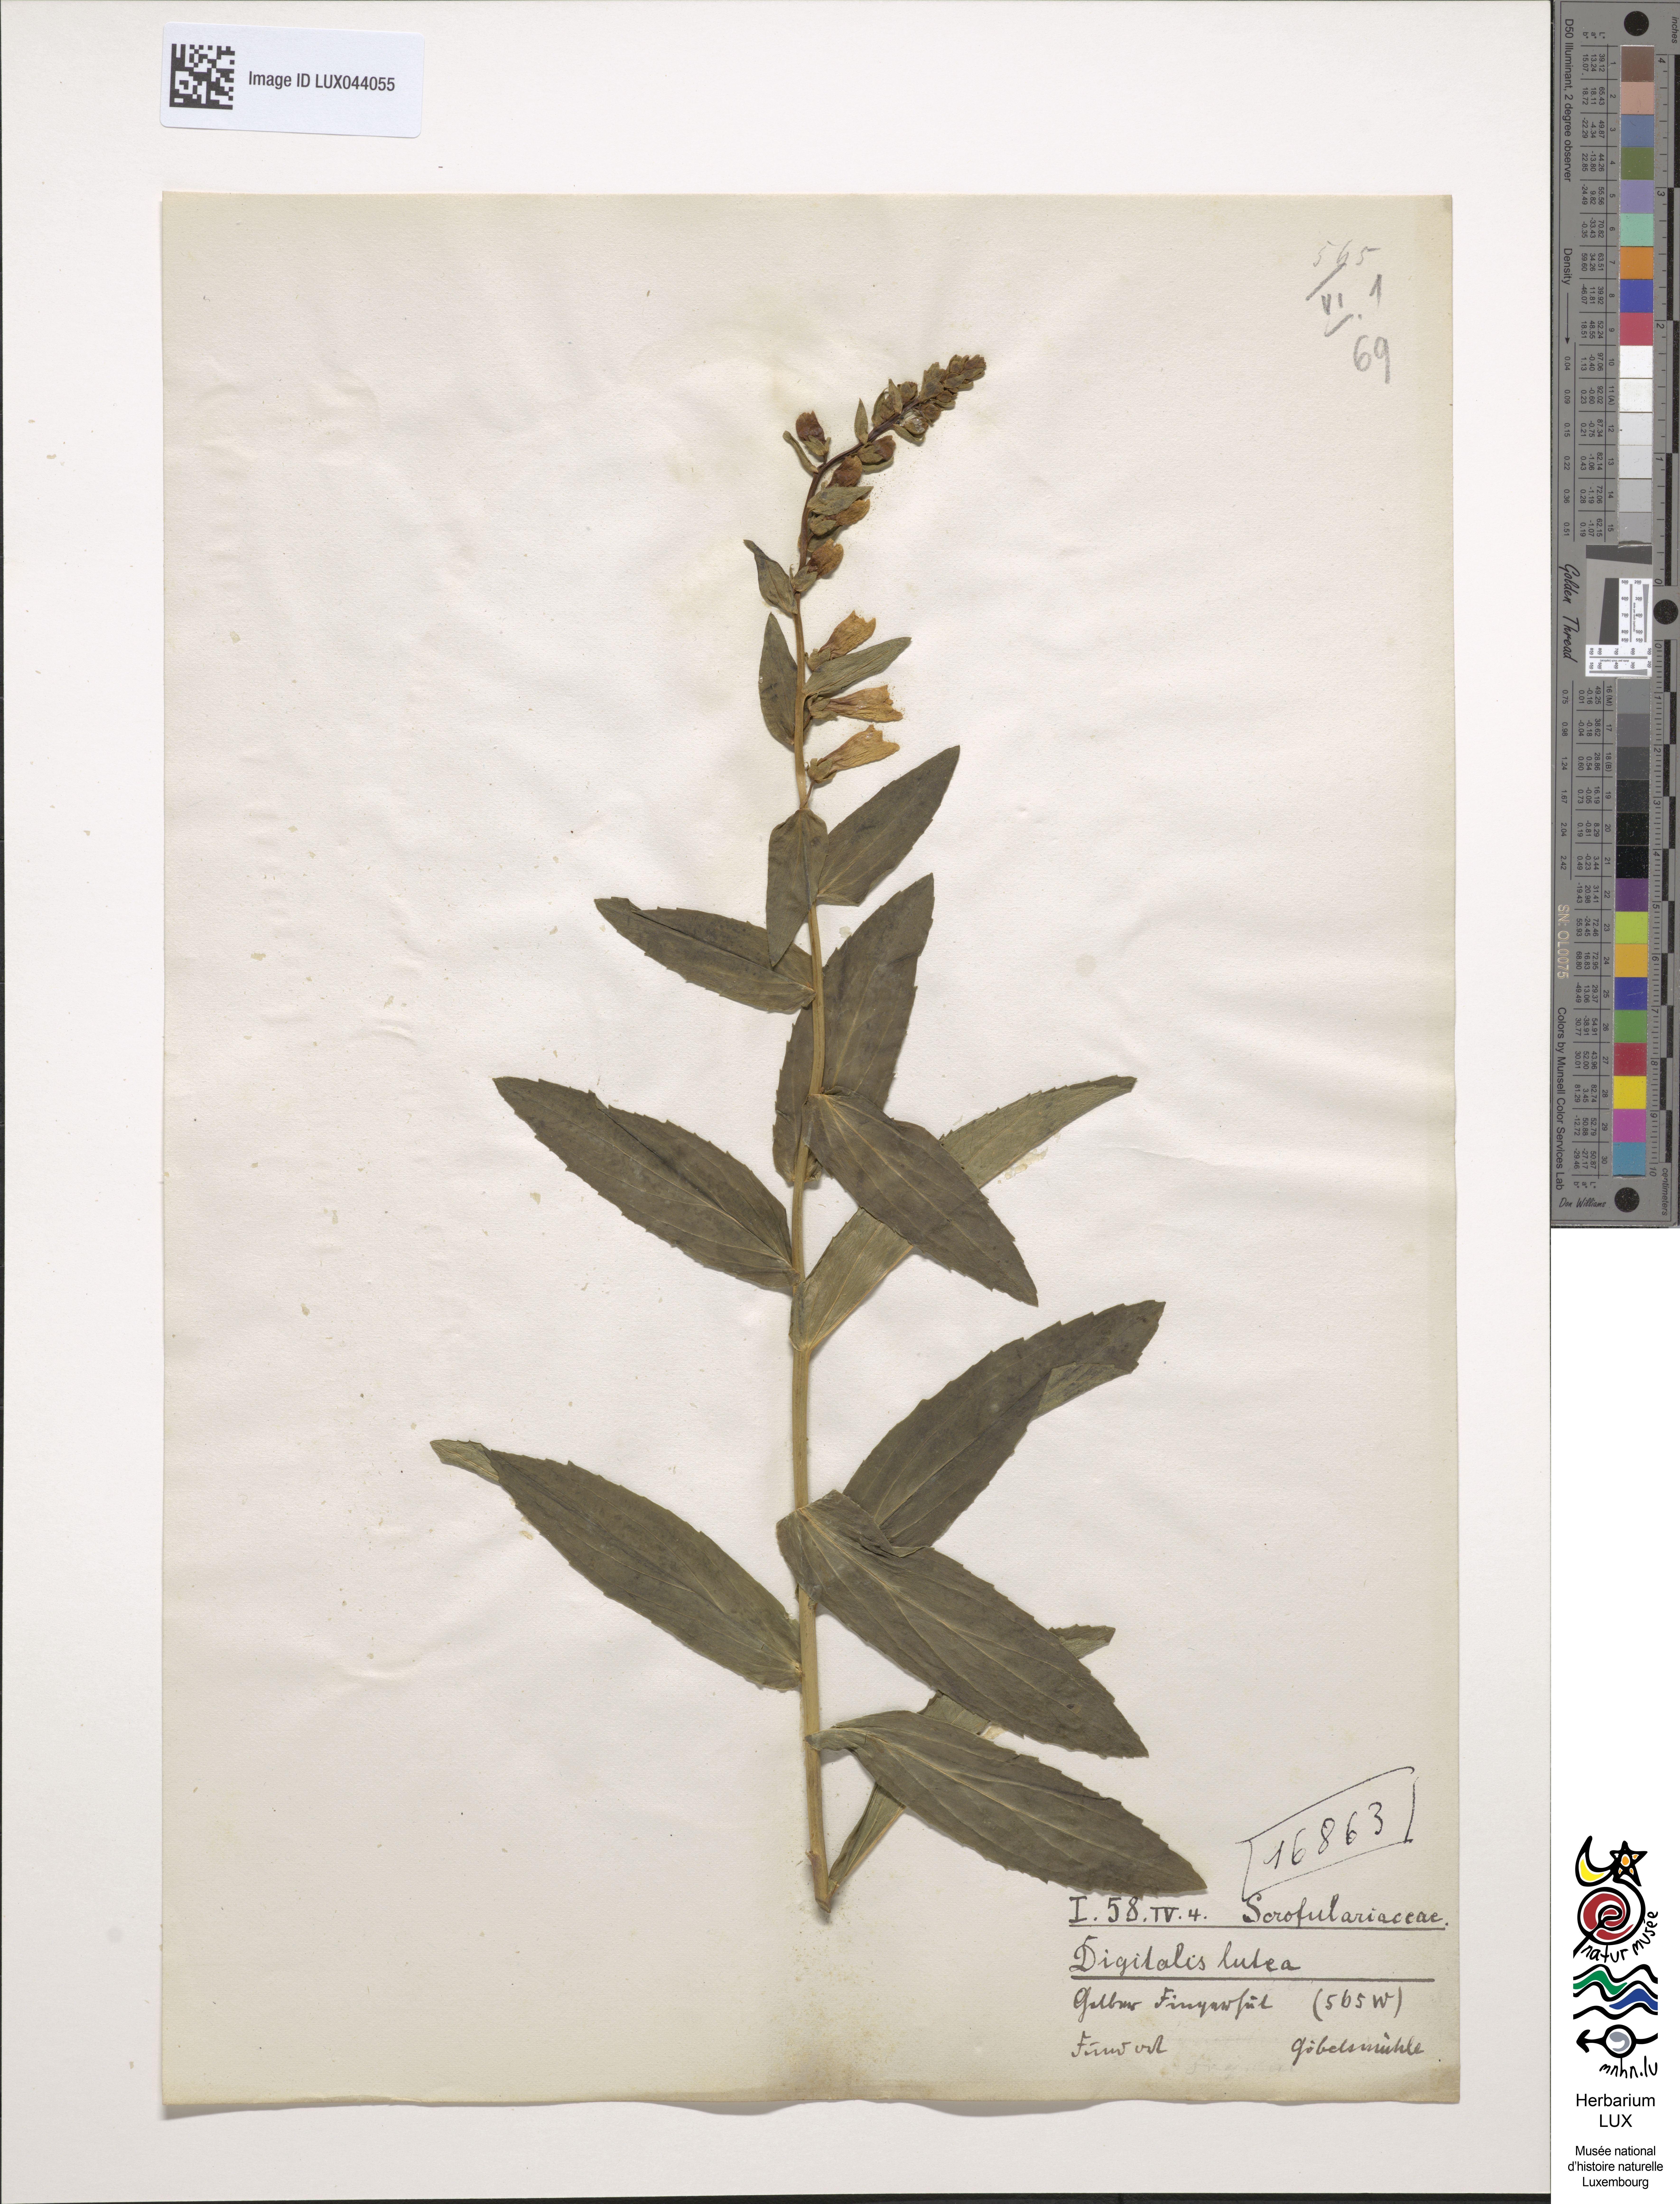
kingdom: Plantae
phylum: Tracheophyta
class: Magnoliopsida
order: Lamiales
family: Plantaginaceae
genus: Digitalis
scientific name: Digitalis lutea
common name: Straw foxglove
